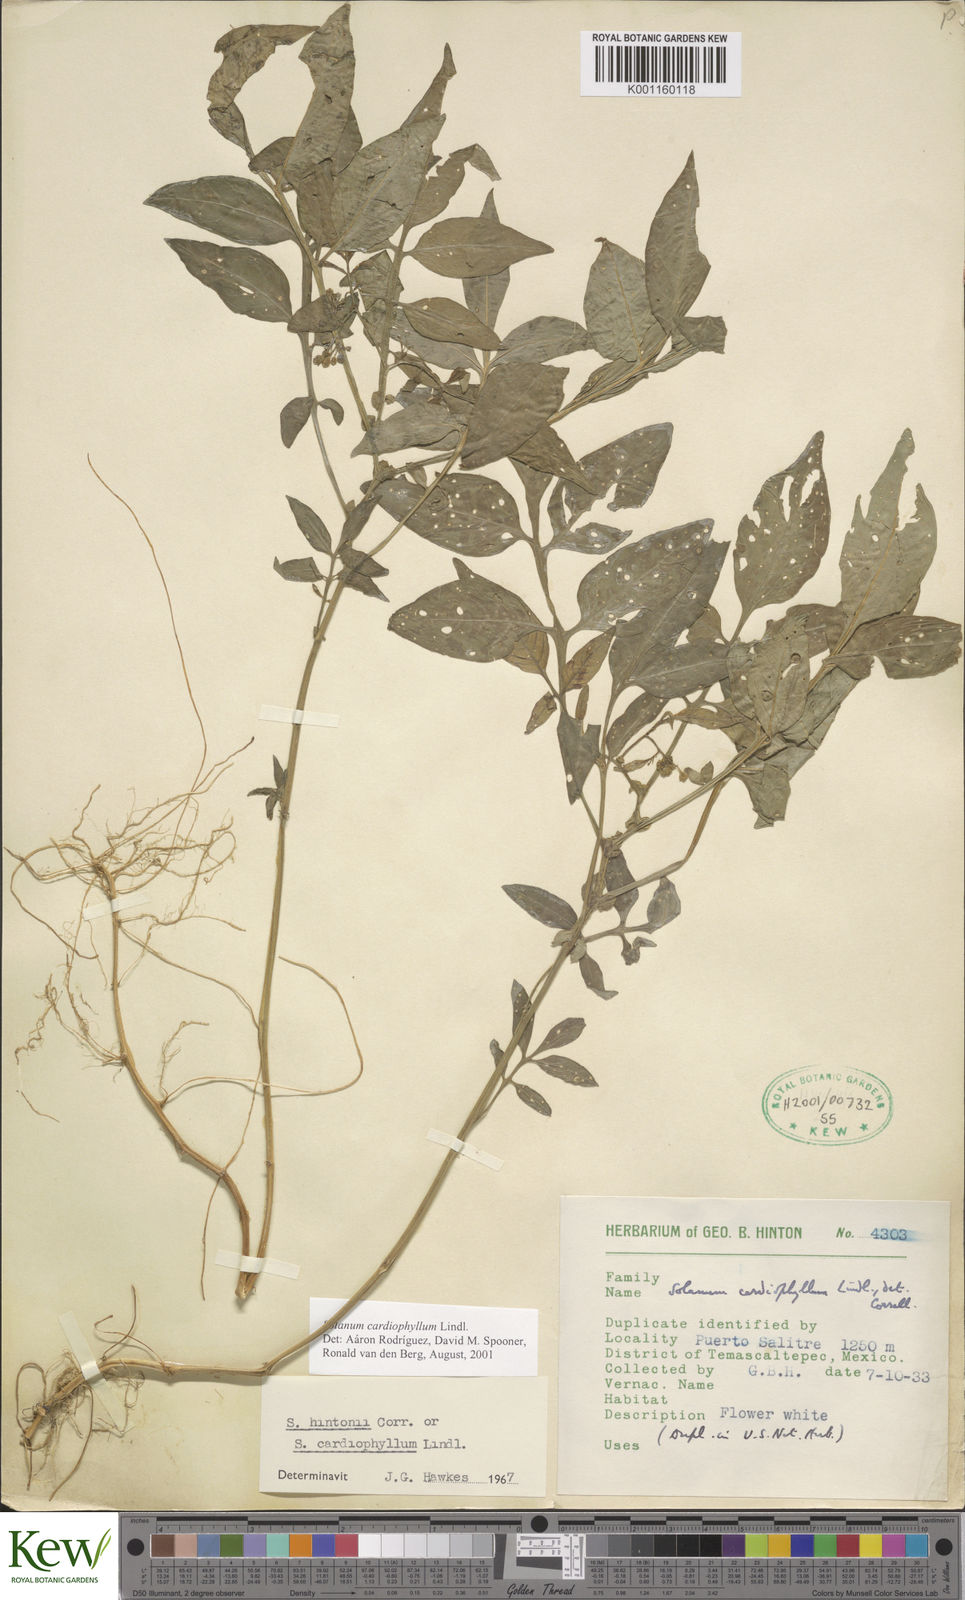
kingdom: Plantae
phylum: Tracheophyta
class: Magnoliopsida
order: Solanales
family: Solanaceae
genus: Solanum
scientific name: Solanum cardiophyllum
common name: Heartleaf horsenettle
